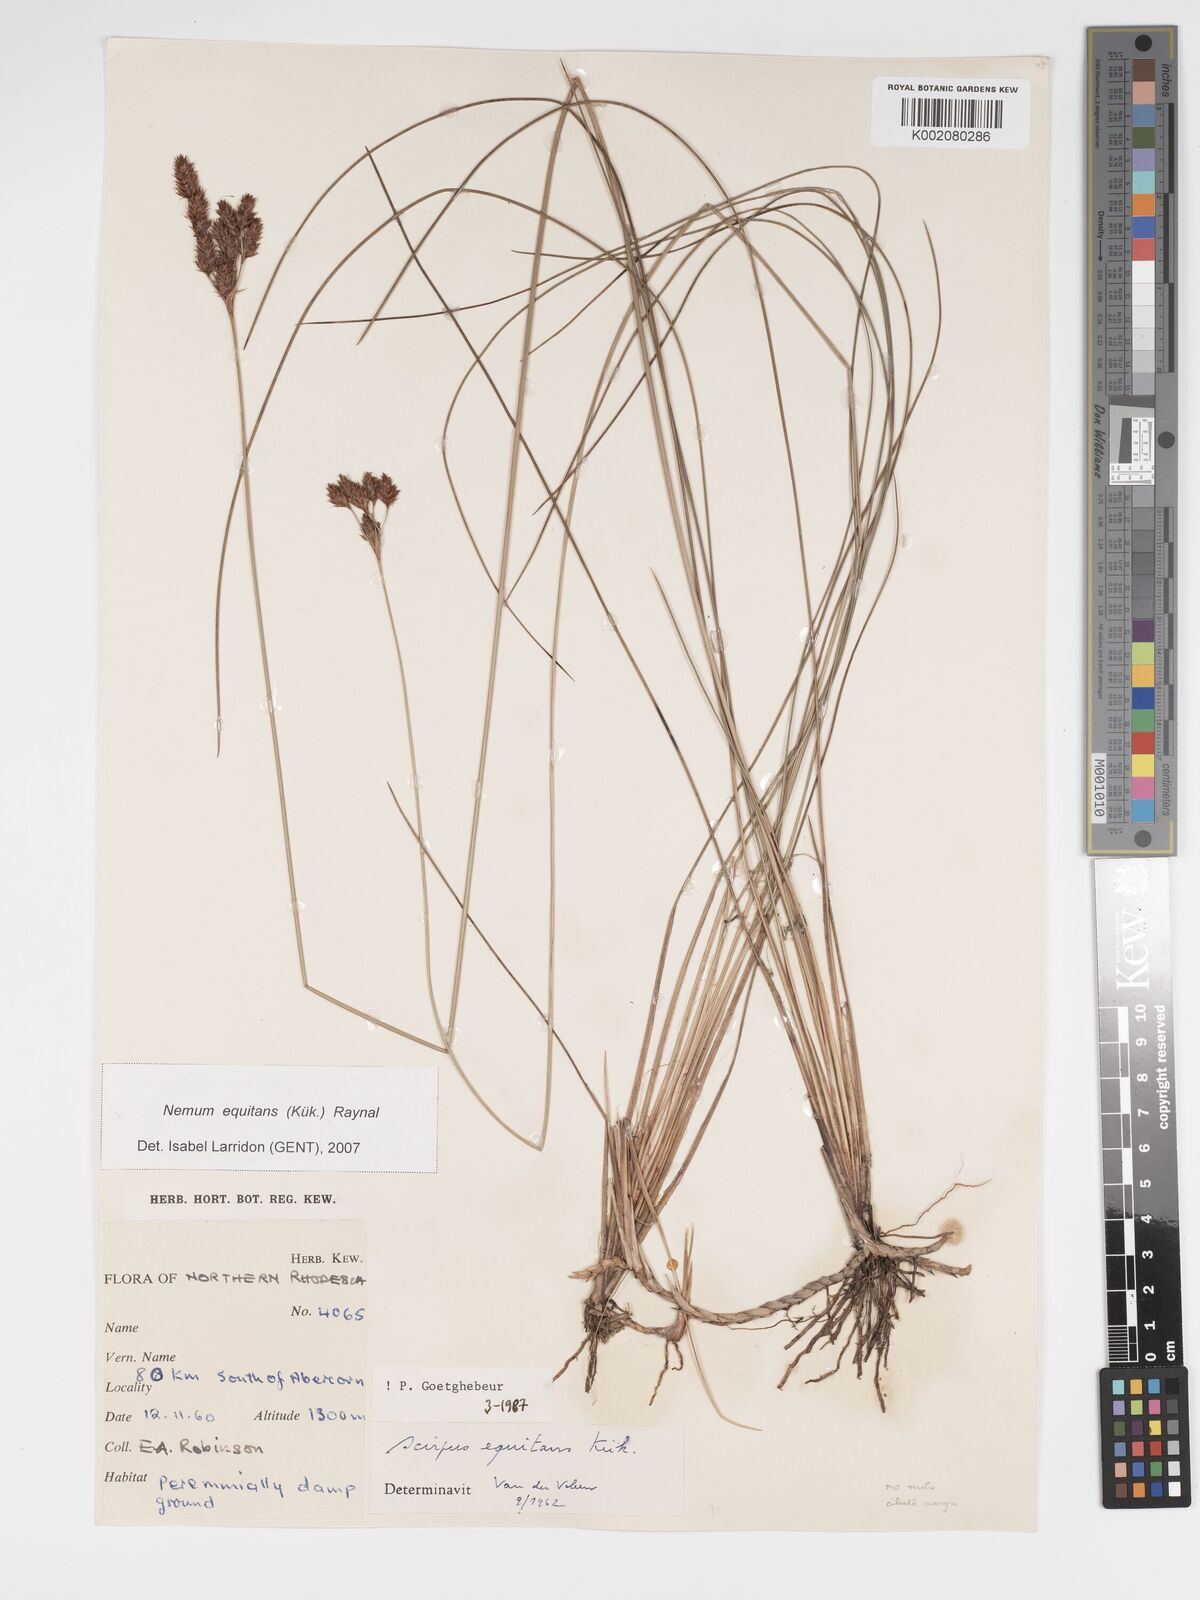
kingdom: Plantae
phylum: Tracheophyta
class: Liliopsida
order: Poales
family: Cyperaceae
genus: Bulbostylis
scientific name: Bulbostylis equitans
